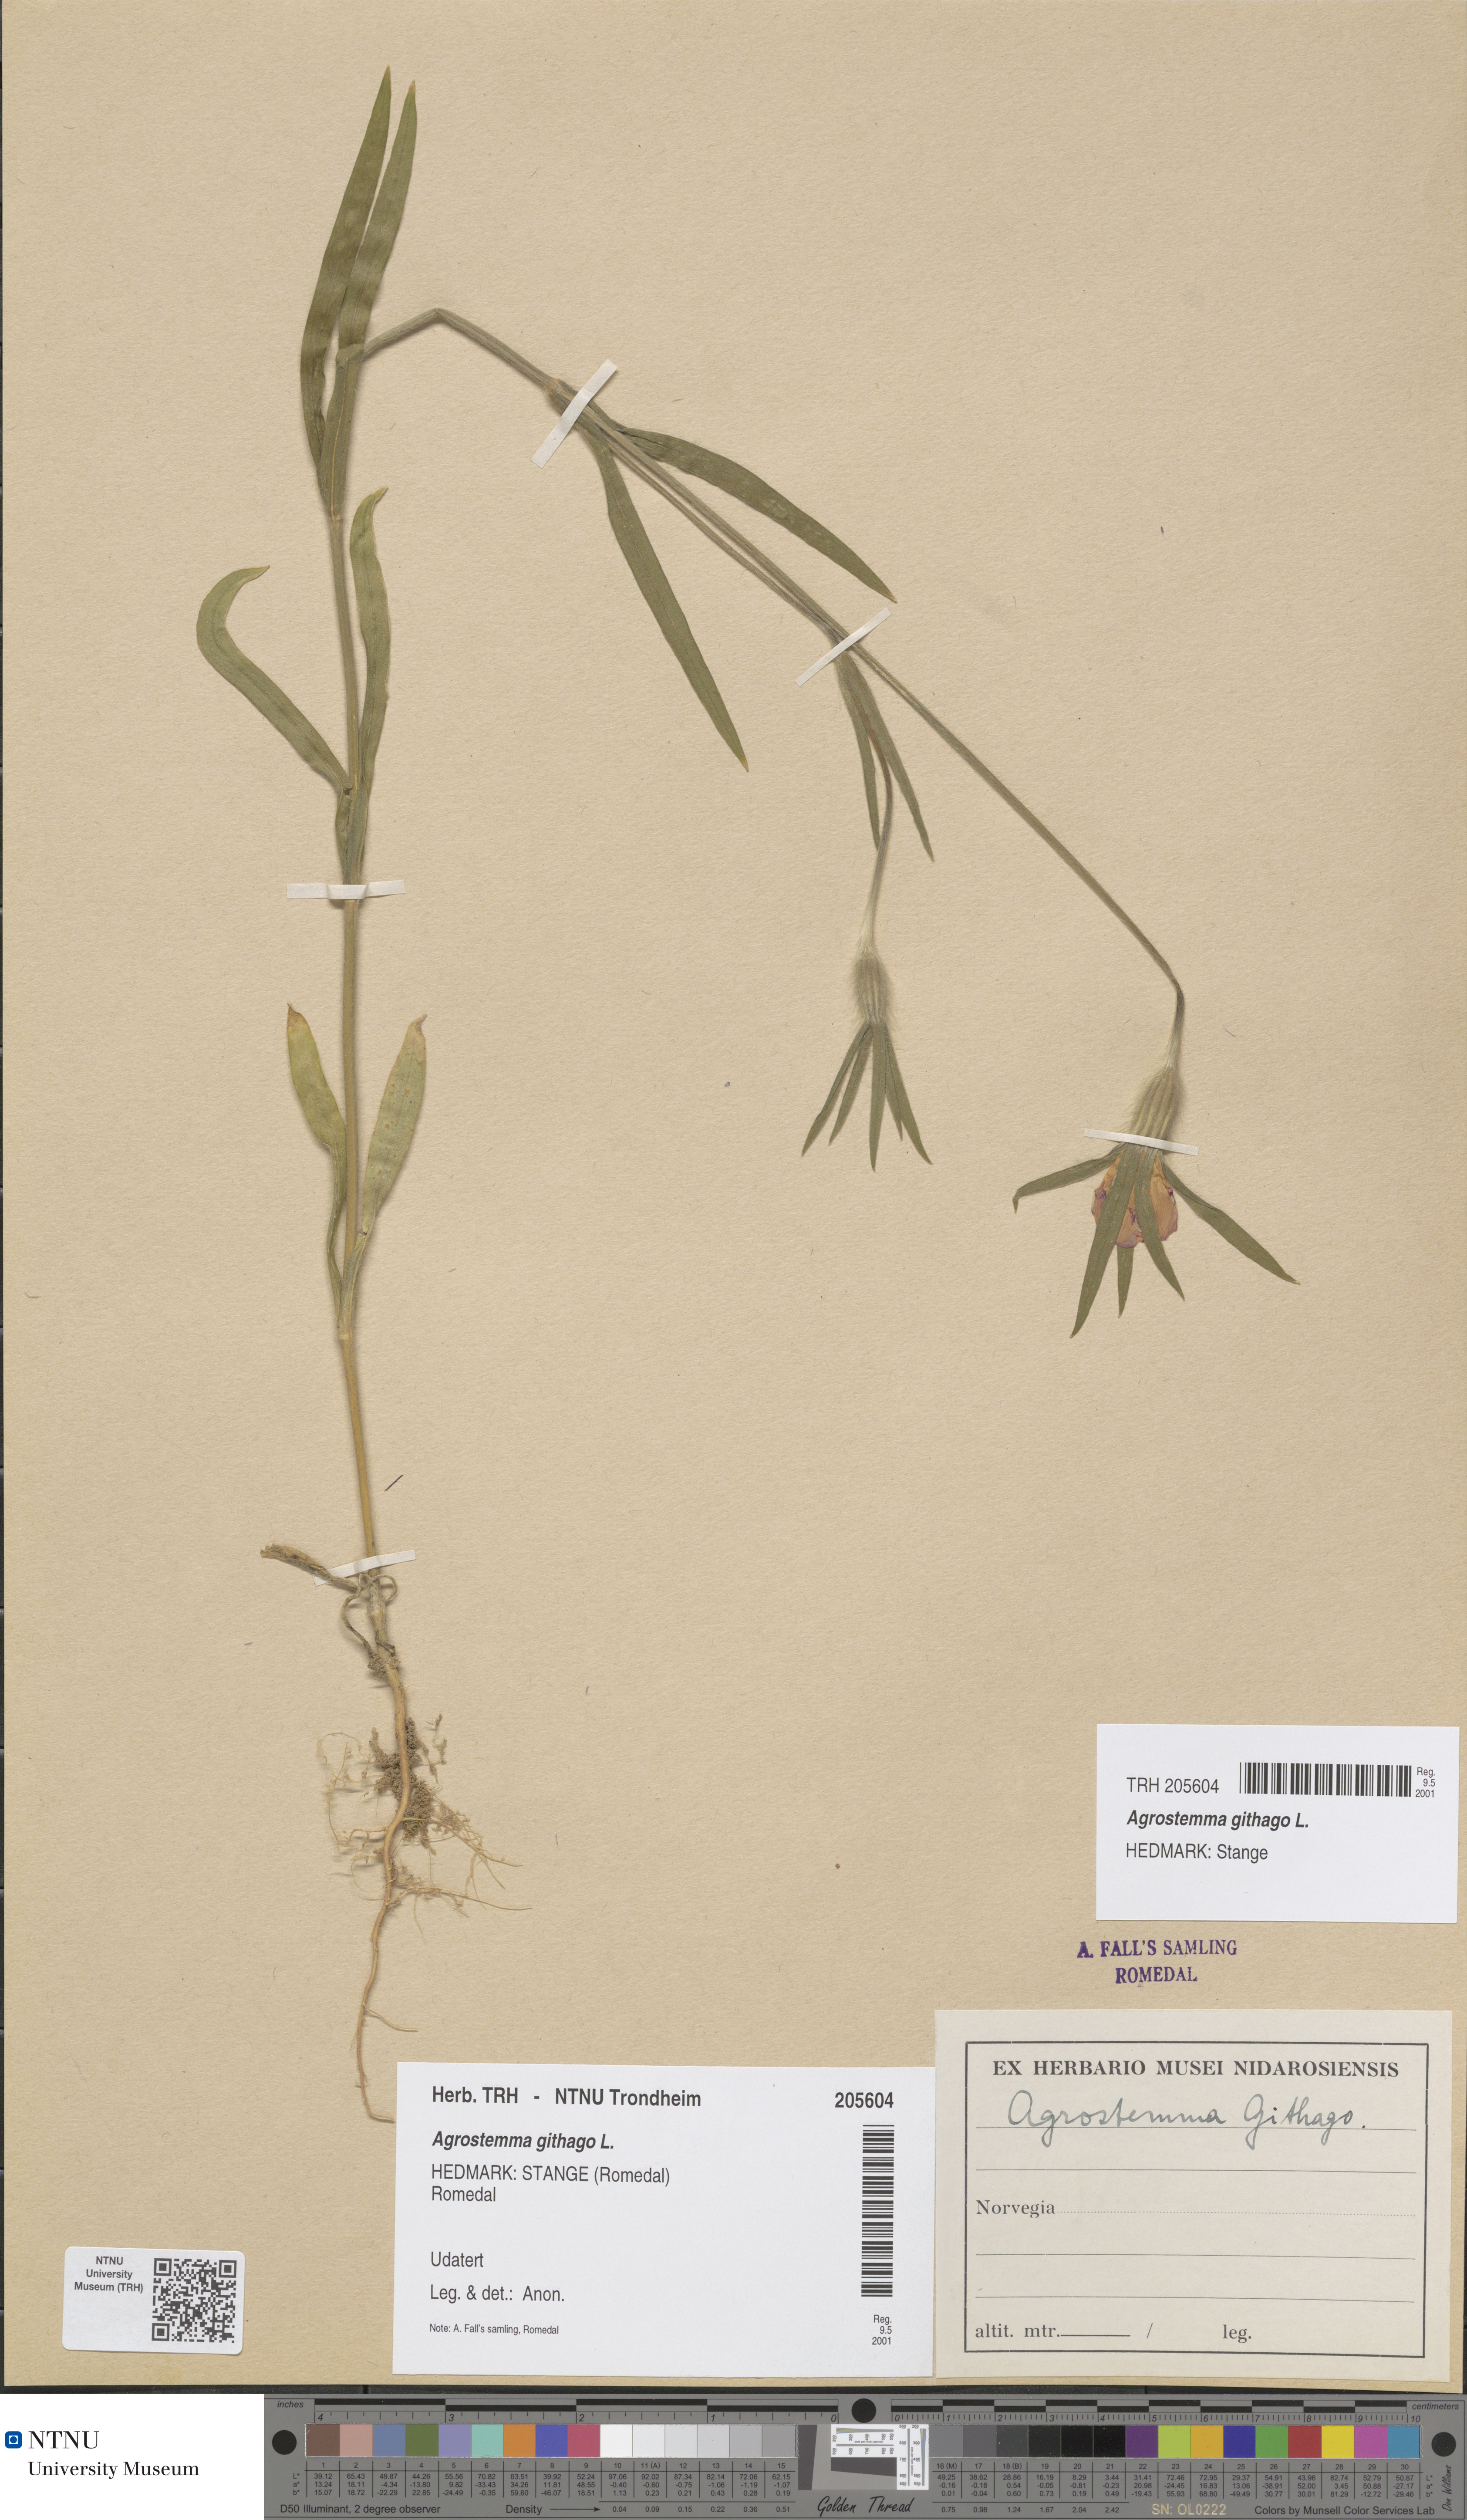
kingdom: Plantae
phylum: Tracheophyta
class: Magnoliopsida
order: Caryophyllales
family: Caryophyllaceae
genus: Agrostemma
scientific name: Agrostemma githago
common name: Common corncockle
